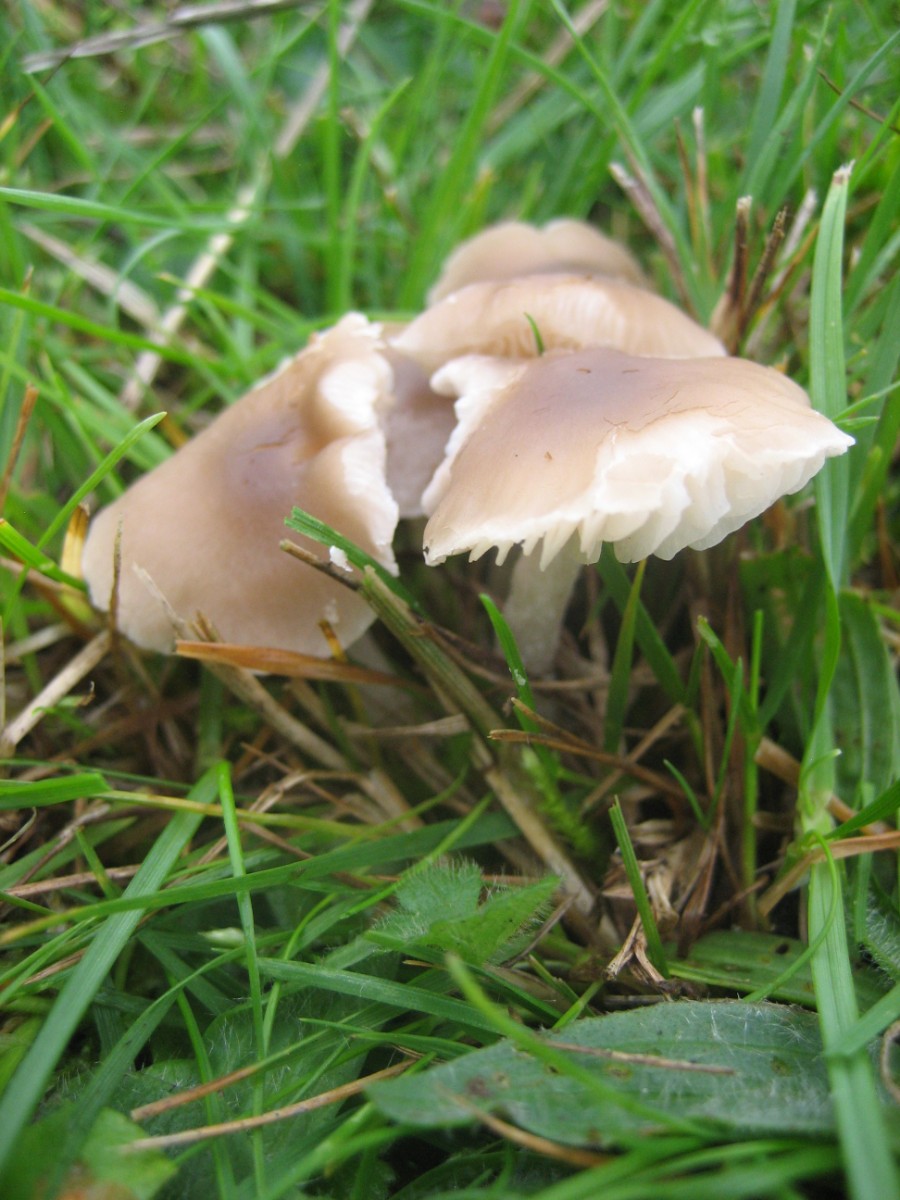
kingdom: Fungi
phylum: Basidiomycota
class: Agaricomycetes
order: Agaricales
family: Tricholomataceae
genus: Dermoloma
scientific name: Dermoloma cuneifolium
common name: eng-nonnehat
